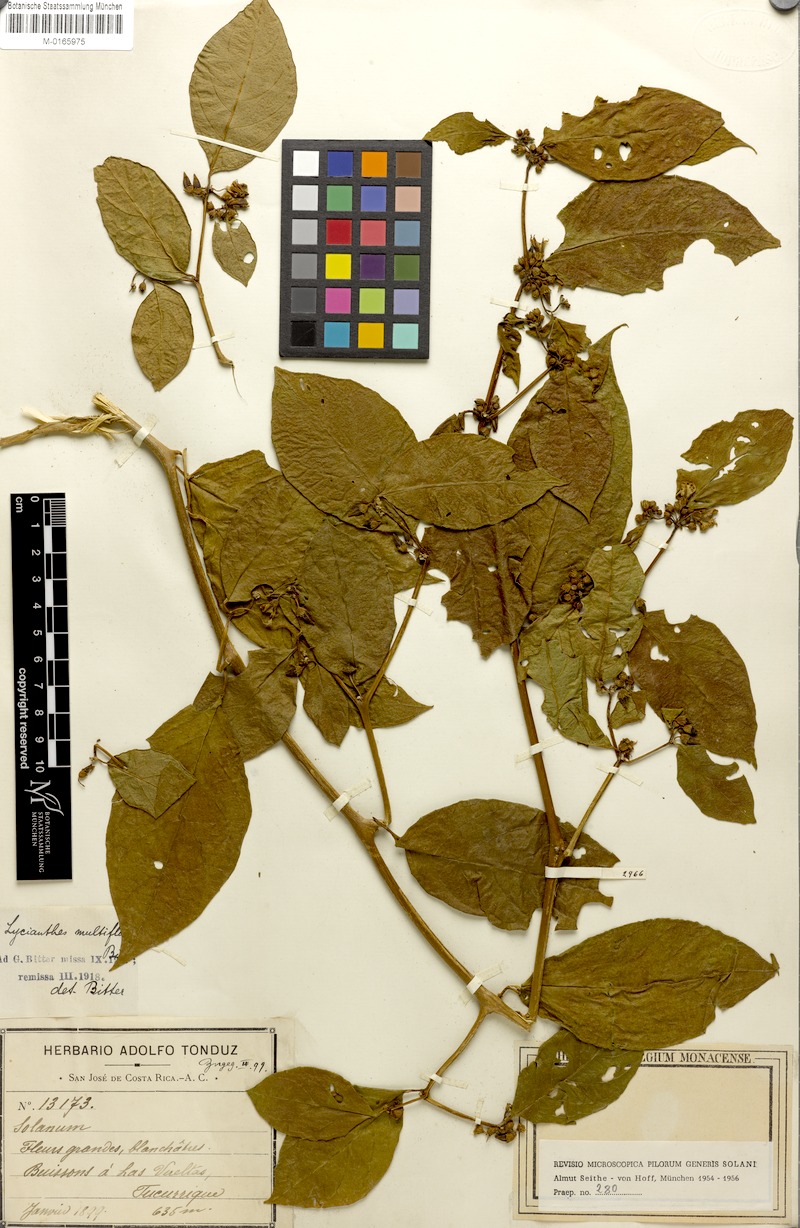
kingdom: Plantae
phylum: Tracheophyta
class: Magnoliopsida
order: Solanales
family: Solanaceae
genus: Lycianthes
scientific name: Lycianthes multiflora
